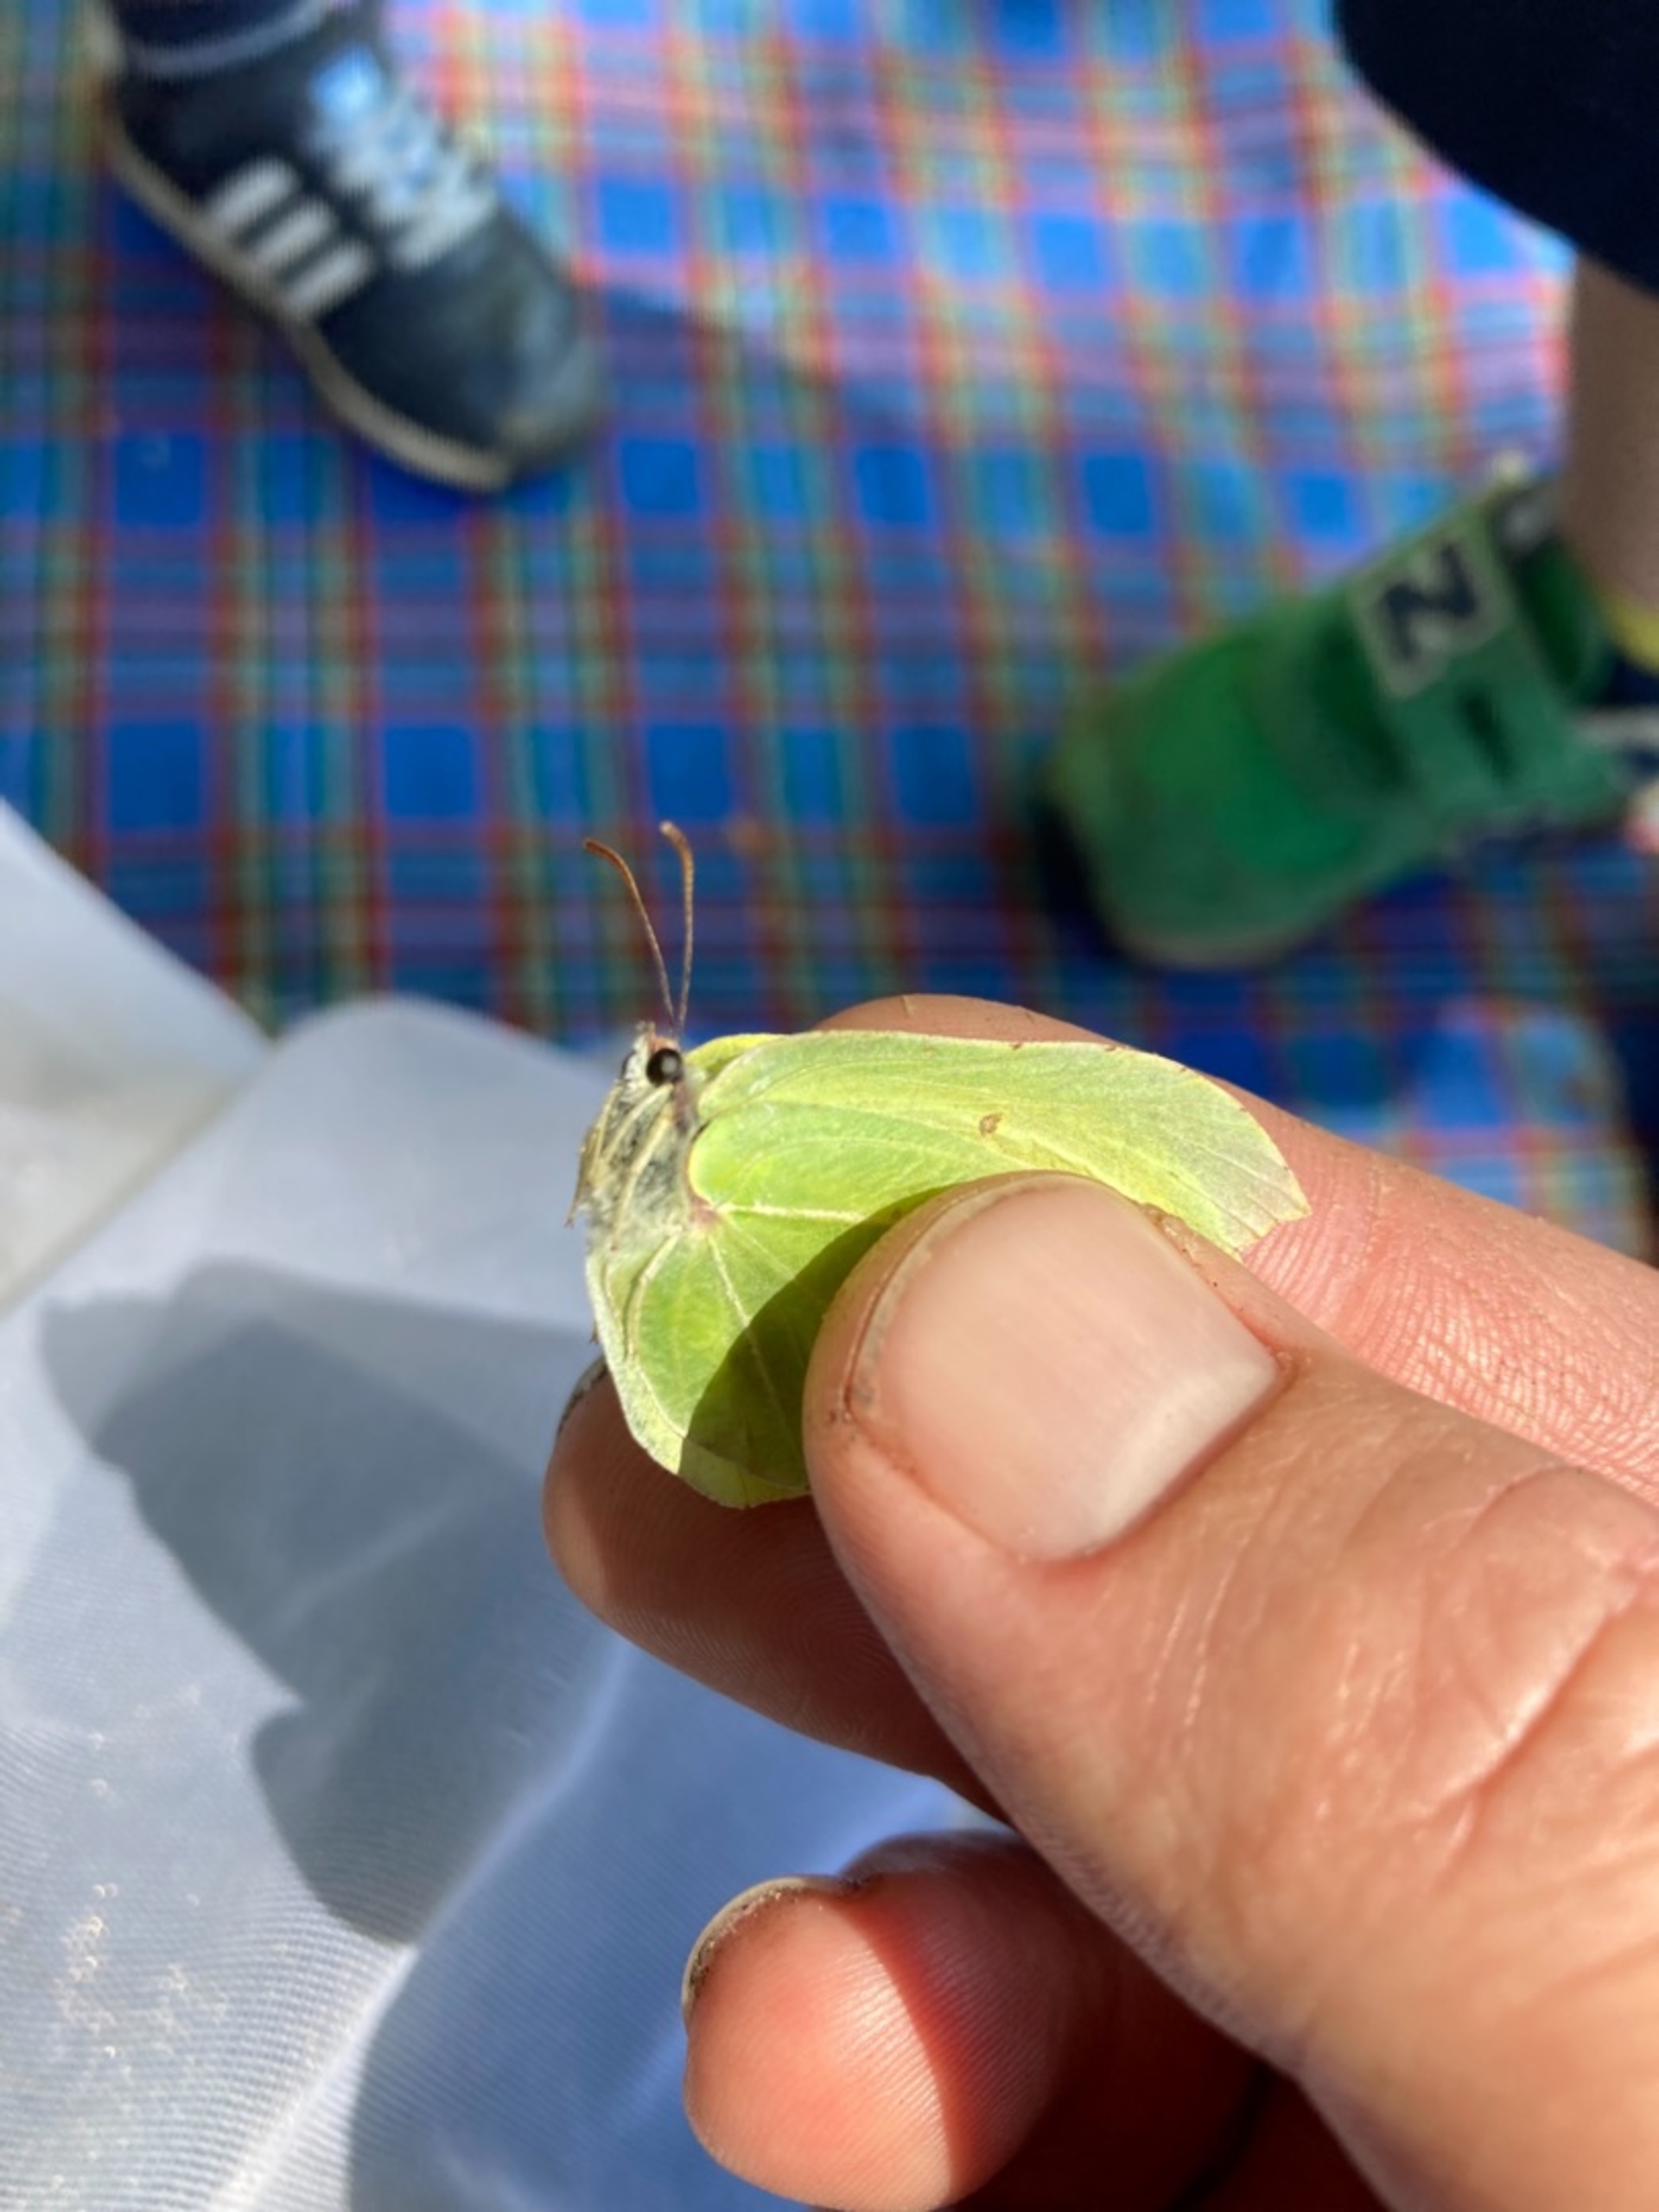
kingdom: Animalia
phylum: Arthropoda
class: Insecta
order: Lepidoptera
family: Pieridae
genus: Gonepteryx
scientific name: Gonepteryx rhamni
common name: Citronsommerfugl
